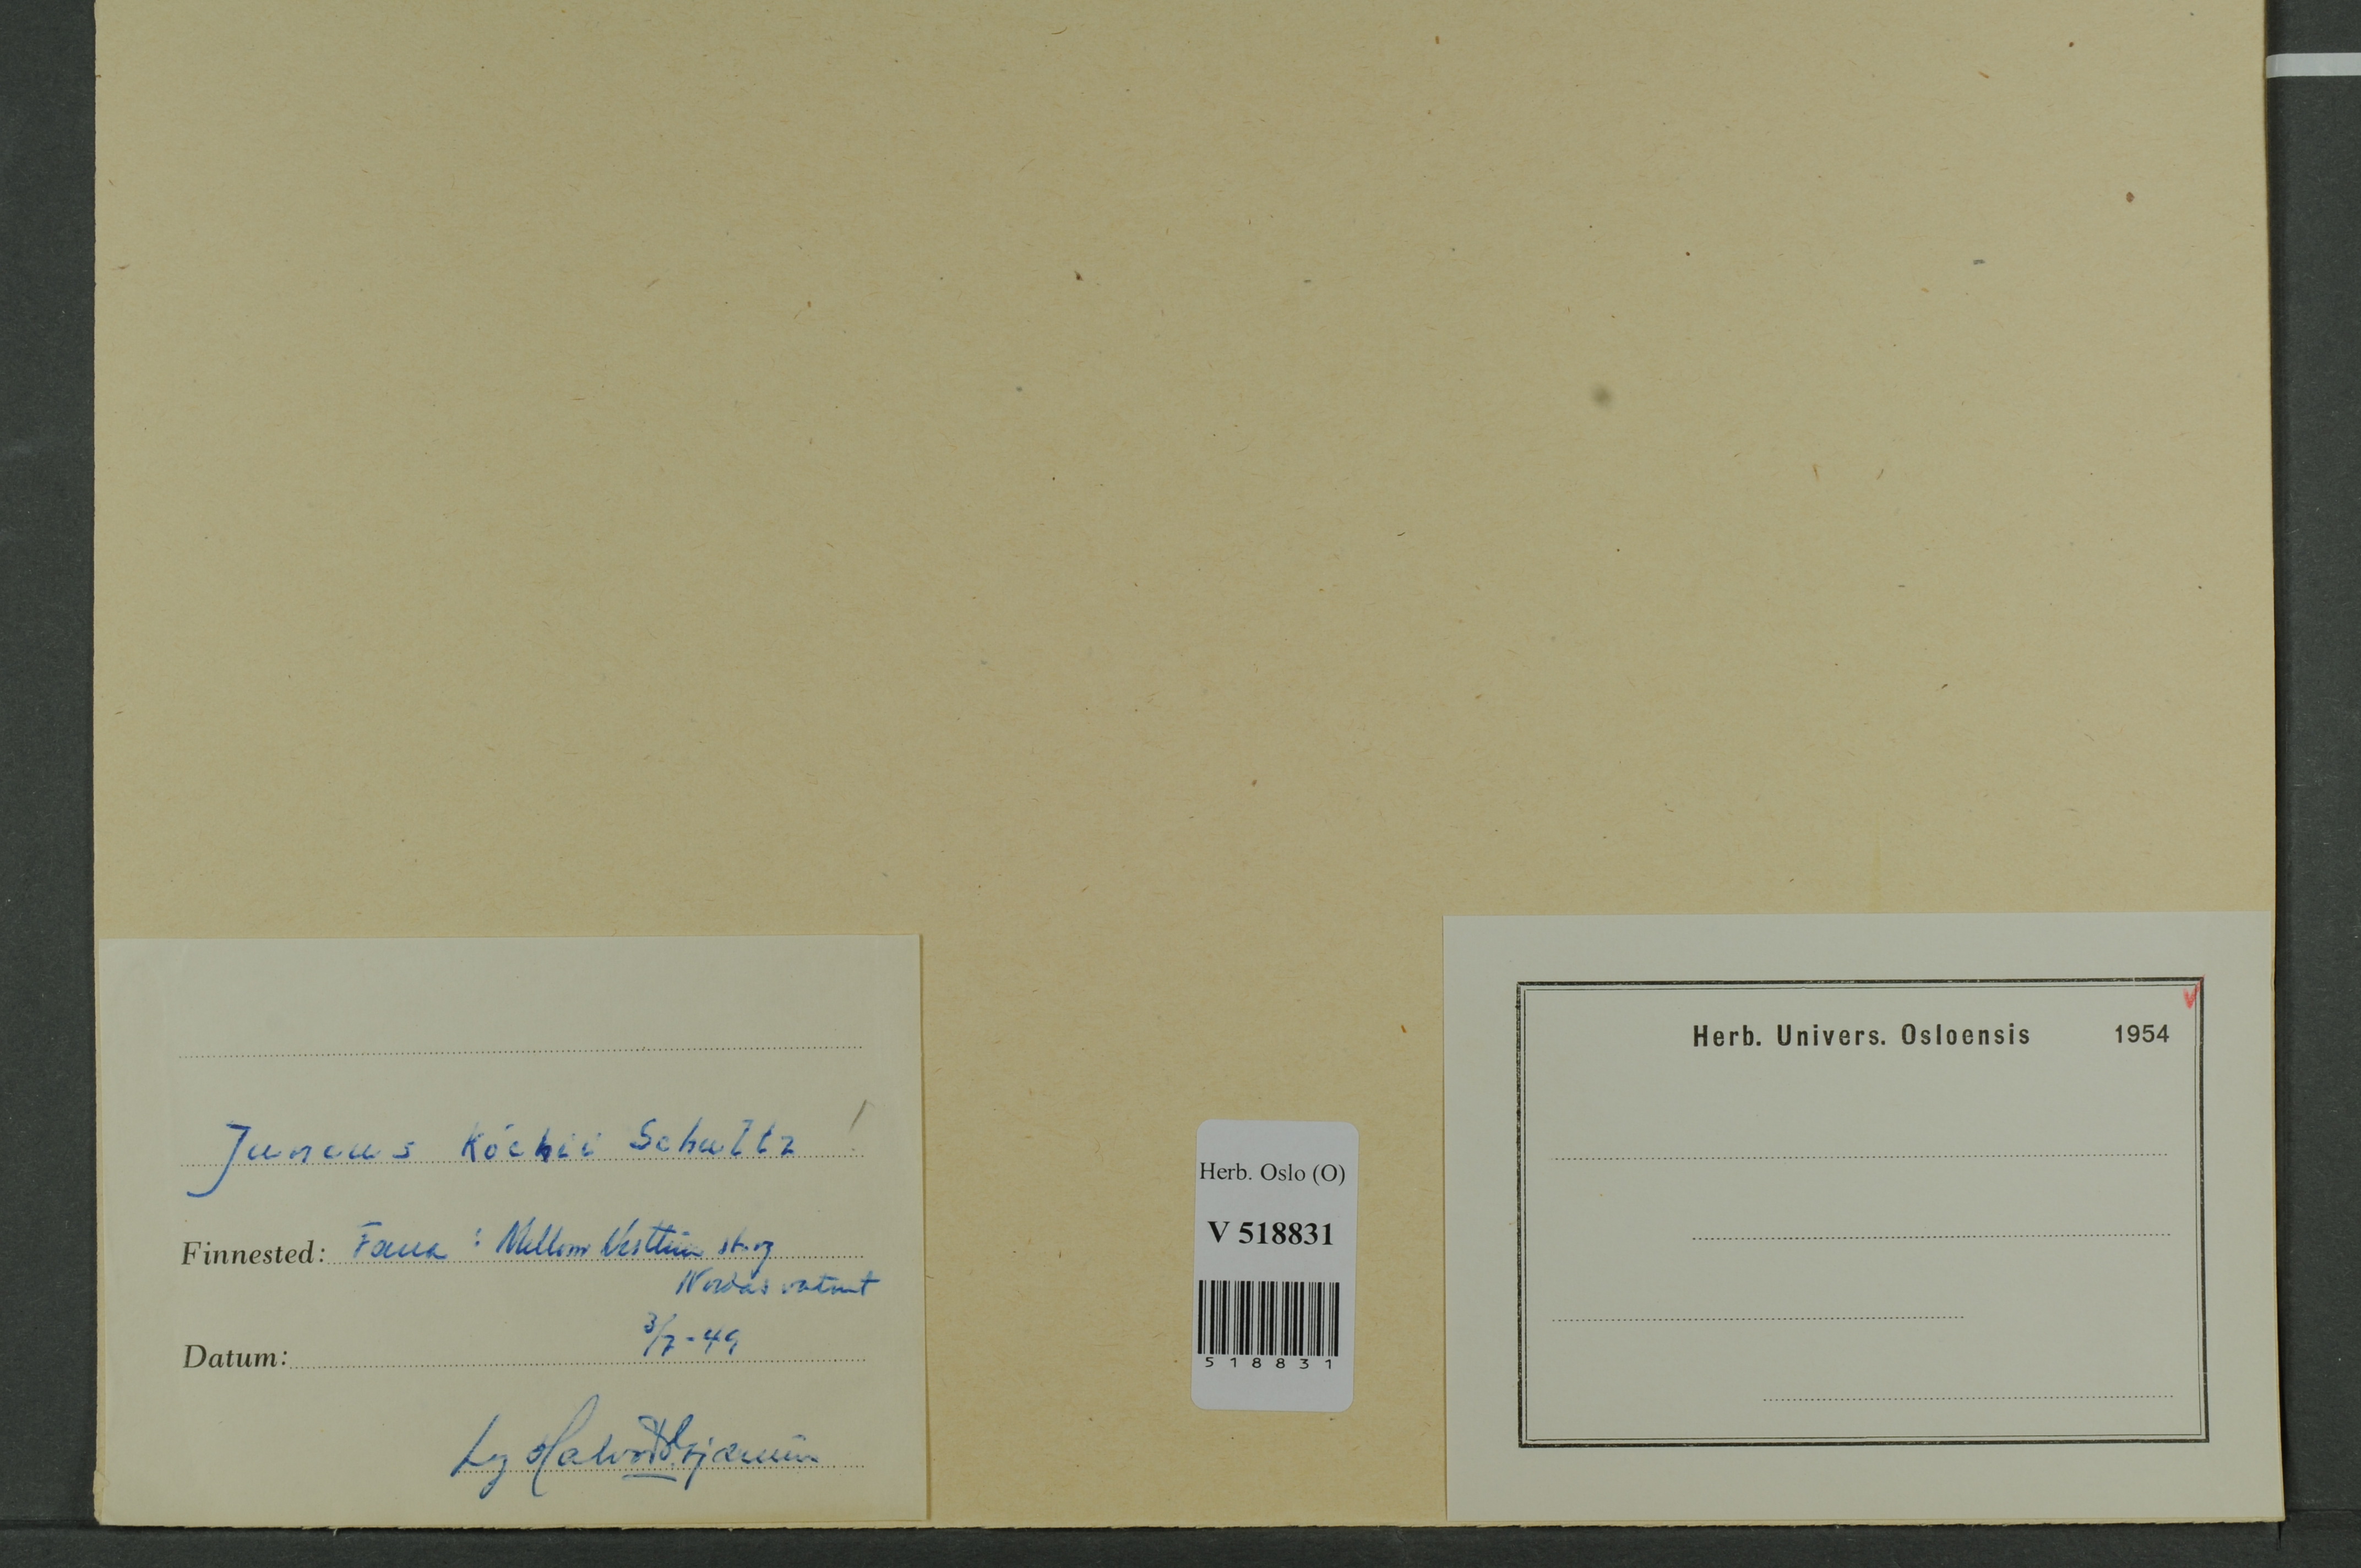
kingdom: Plantae
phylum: Tracheophyta
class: Liliopsida
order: Poales
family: Juncaceae
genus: Juncus
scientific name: Juncus bulbosus
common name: Bulbous rush
